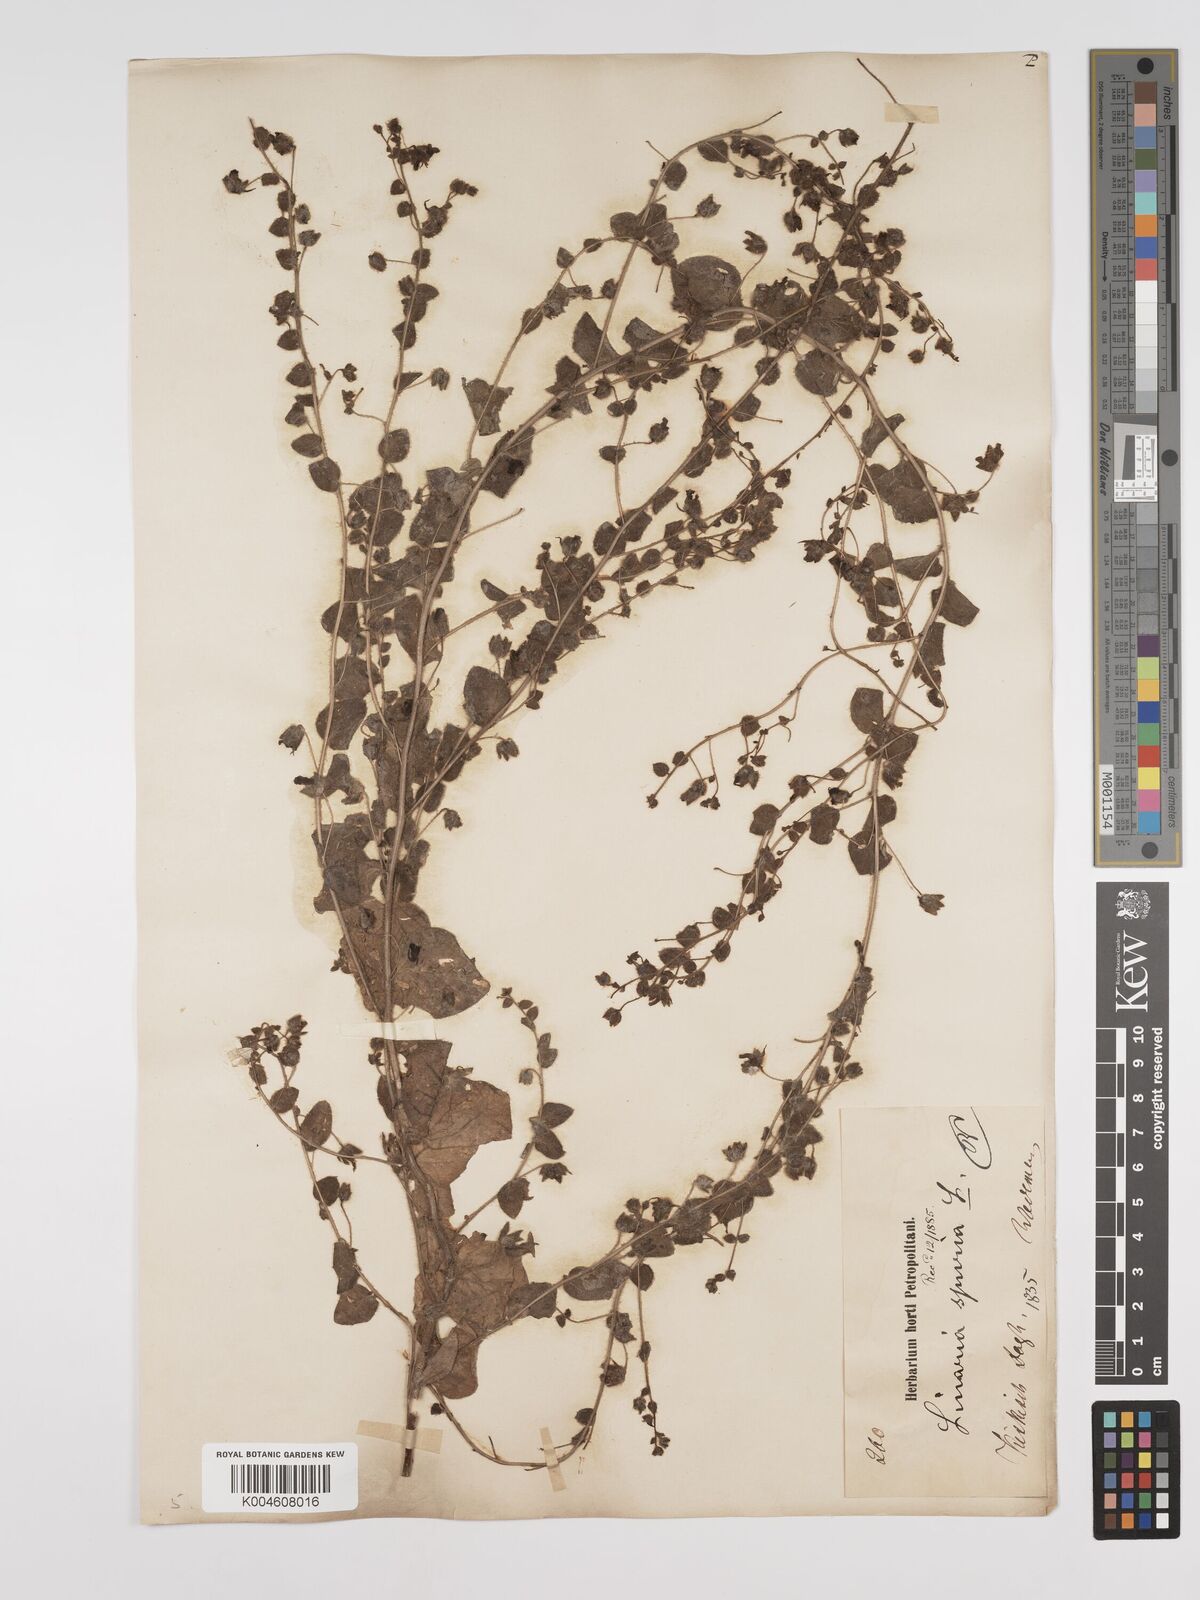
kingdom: Plantae
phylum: Tracheophyta
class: Magnoliopsida
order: Lamiales
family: Plantaginaceae
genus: Kickxia
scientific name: Kickxia spuria
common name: Round-leaved fluellen
